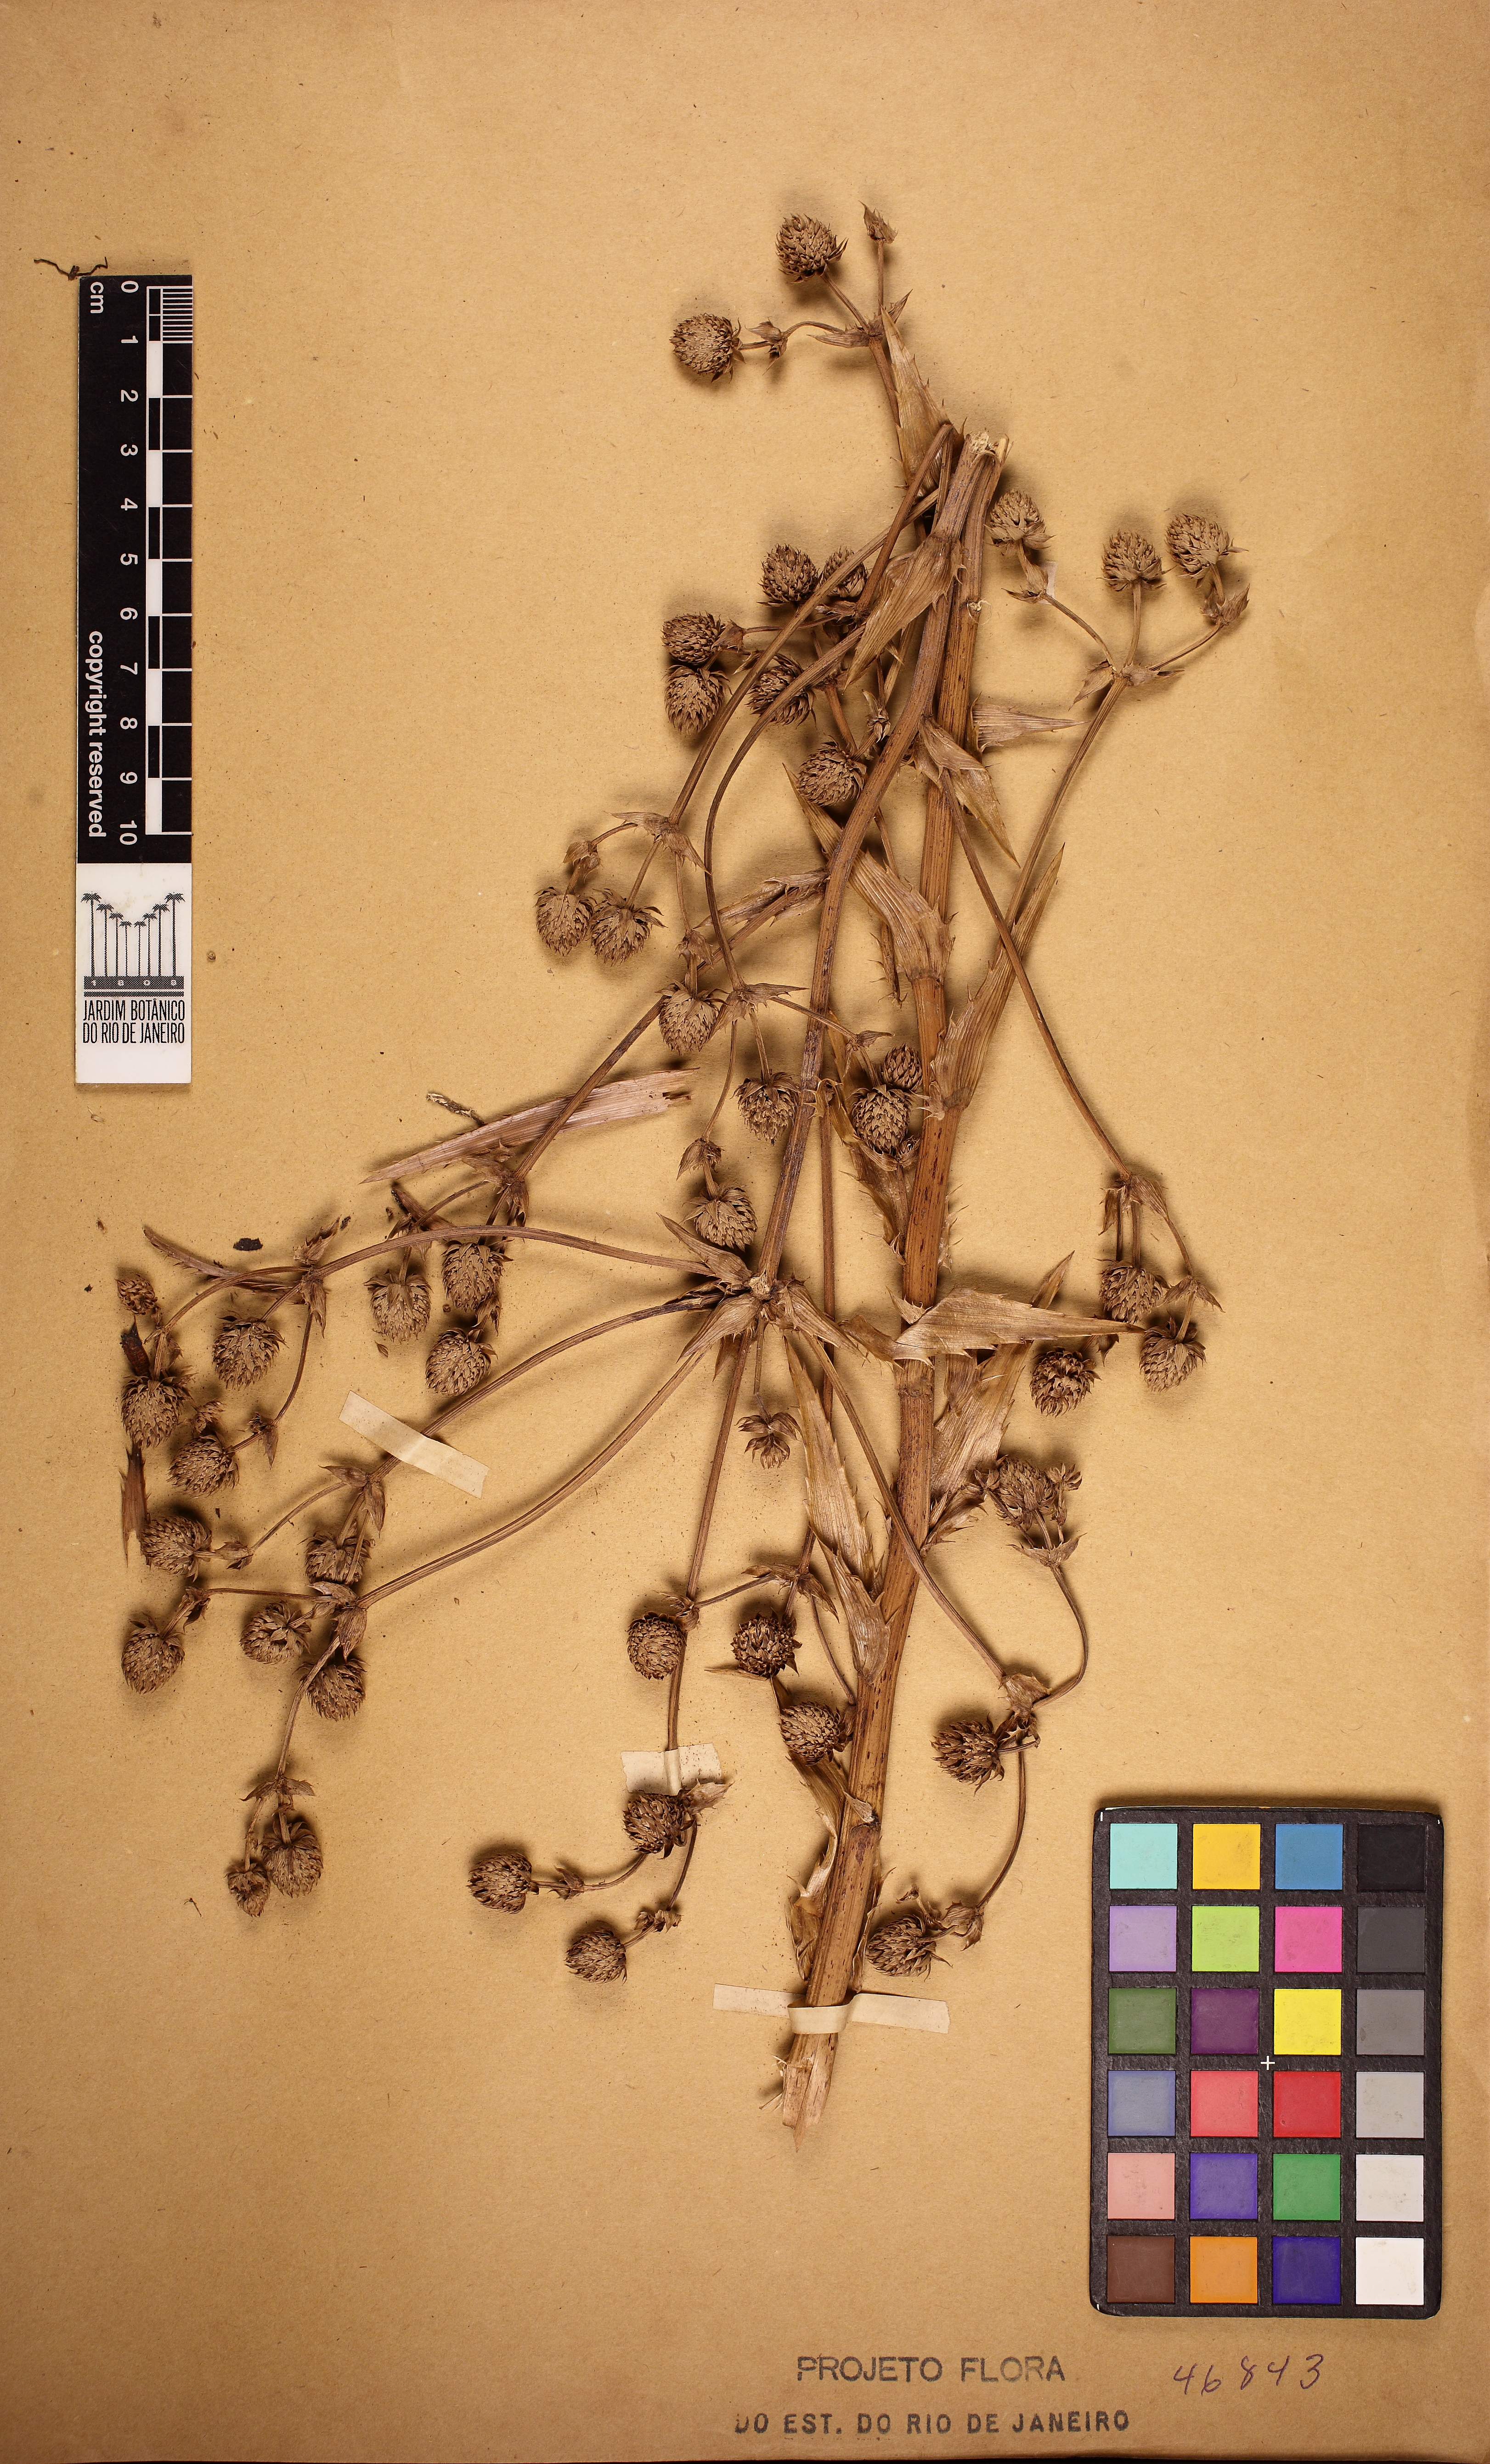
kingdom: Plantae
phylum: Tracheophyta
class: Magnoliopsida
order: Apiales
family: Apiaceae
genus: Eryngium
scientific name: Eryngium eurycephalum
